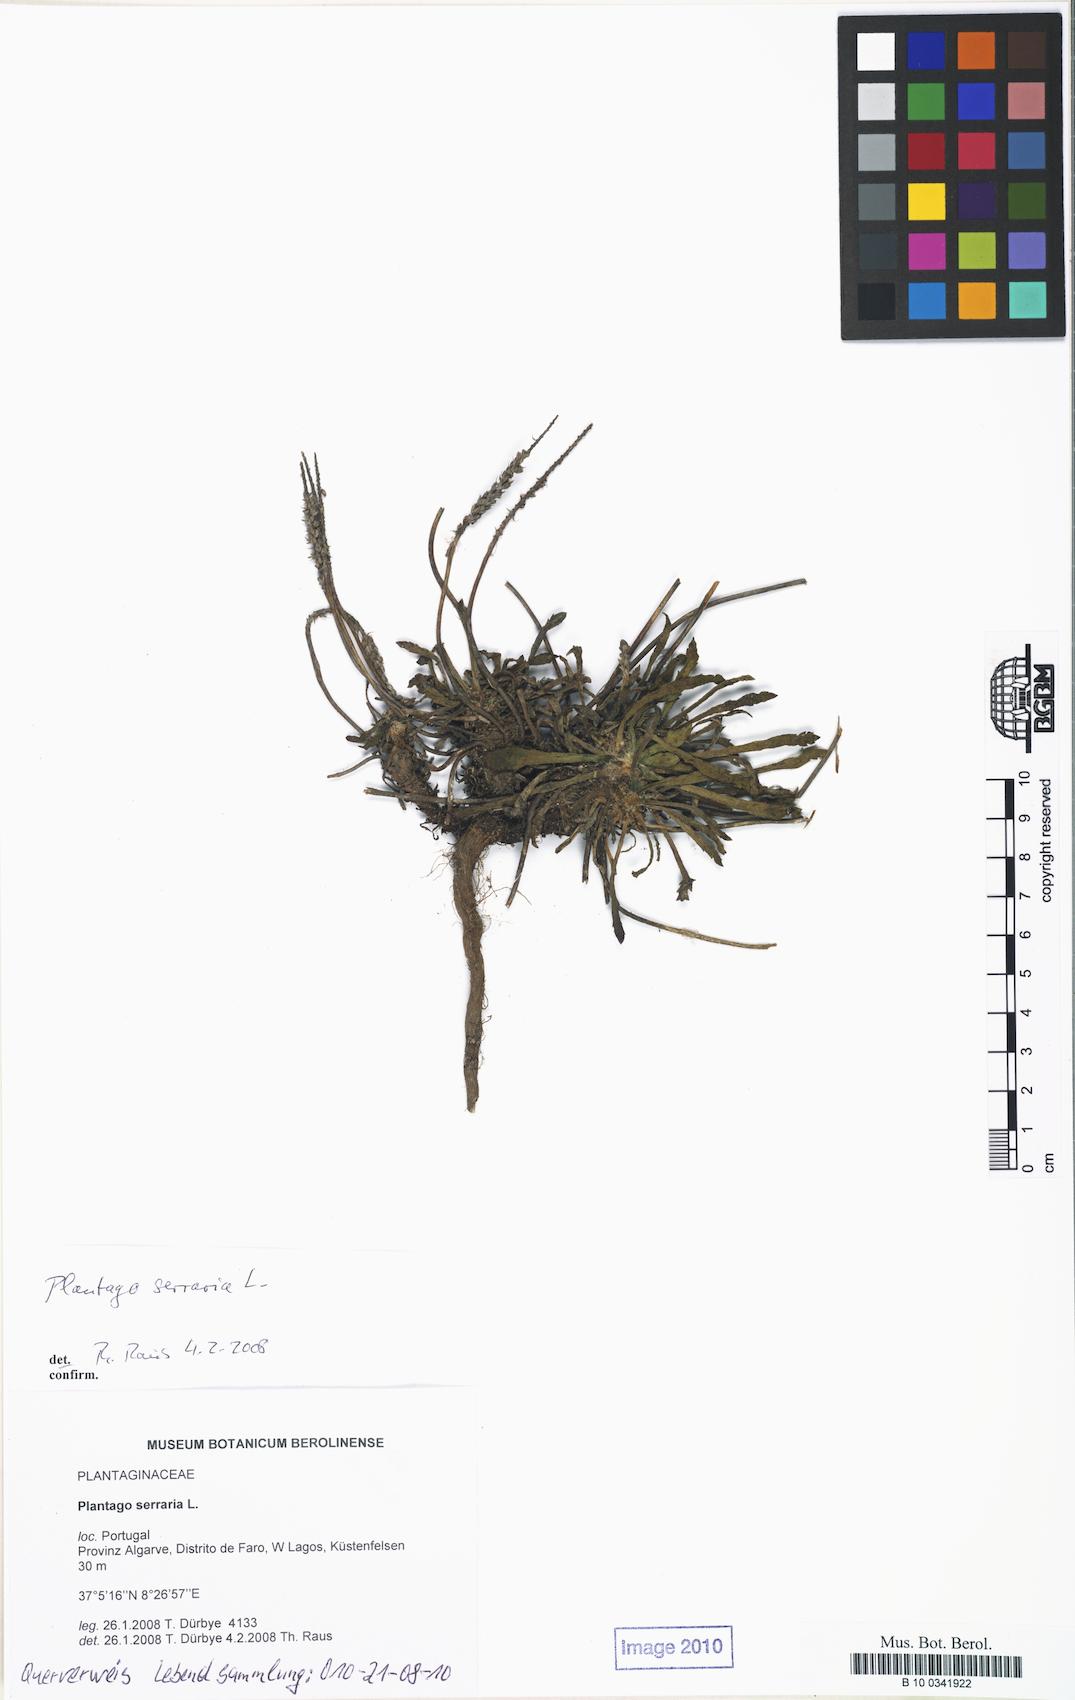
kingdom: Plantae
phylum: Tracheophyta
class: Magnoliopsida
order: Lamiales
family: Plantaginaceae
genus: Plantago
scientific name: Plantago serraria
